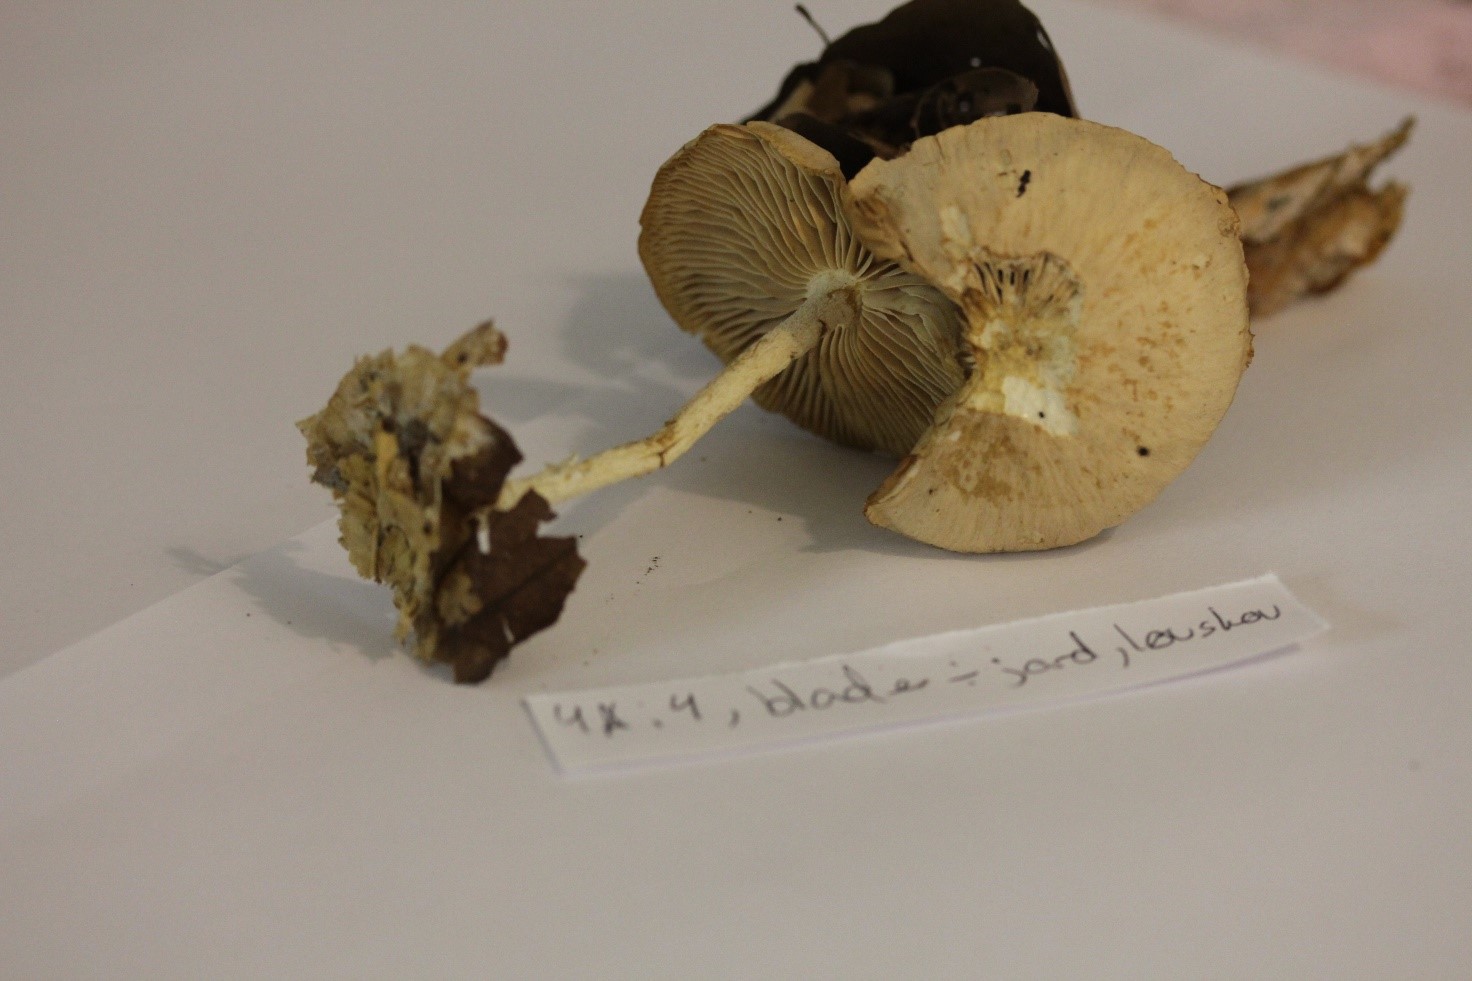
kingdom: Fungi
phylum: Basidiomycota
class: Agaricomycetes
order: Agaricales
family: Omphalotaceae
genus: Collybiopsis
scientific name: Collybiopsis peronata
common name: bestøvlet fladhat
